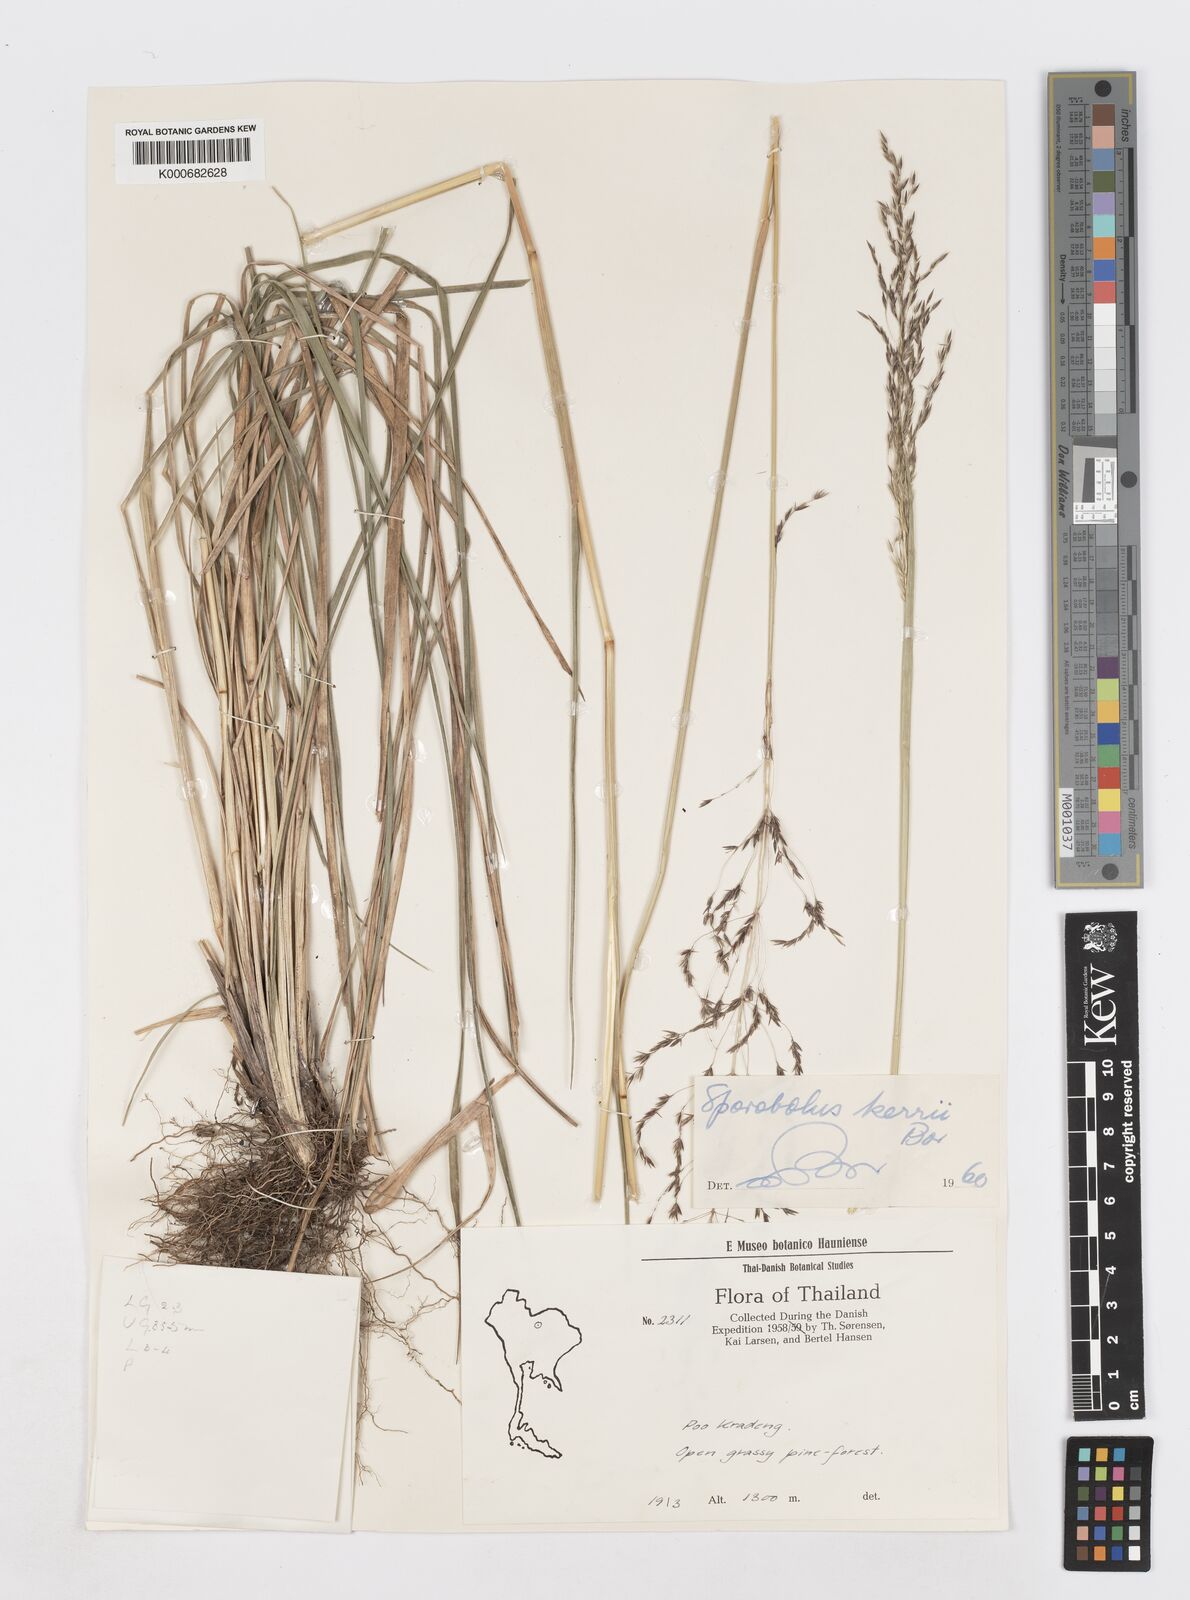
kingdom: Plantae
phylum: Tracheophyta
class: Liliopsida
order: Poales
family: Poaceae
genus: Sporobolus
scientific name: Sporobolus kerrii
